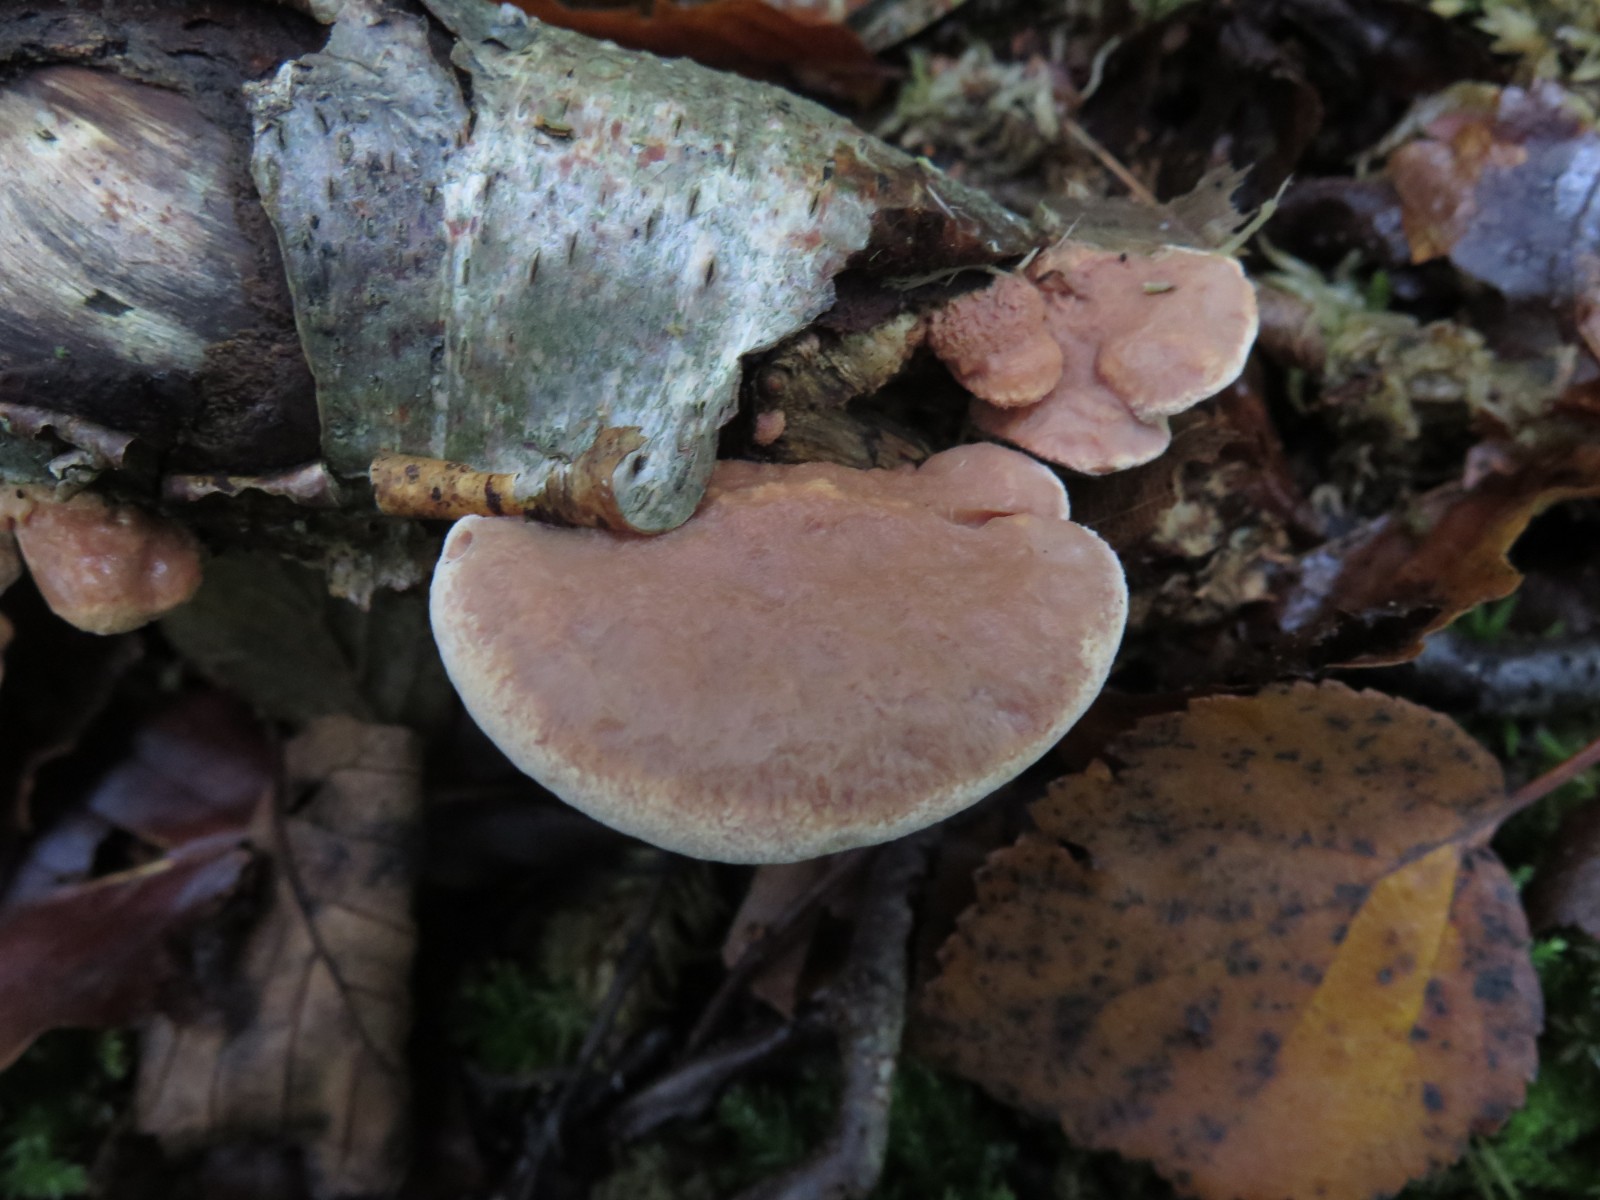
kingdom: Fungi
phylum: Basidiomycota
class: Agaricomycetes
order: Polyporales
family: Phanerochaetaceae
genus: Hapalopilus
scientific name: Hapalopilus rutilans
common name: rødlig okkerporesvamp
